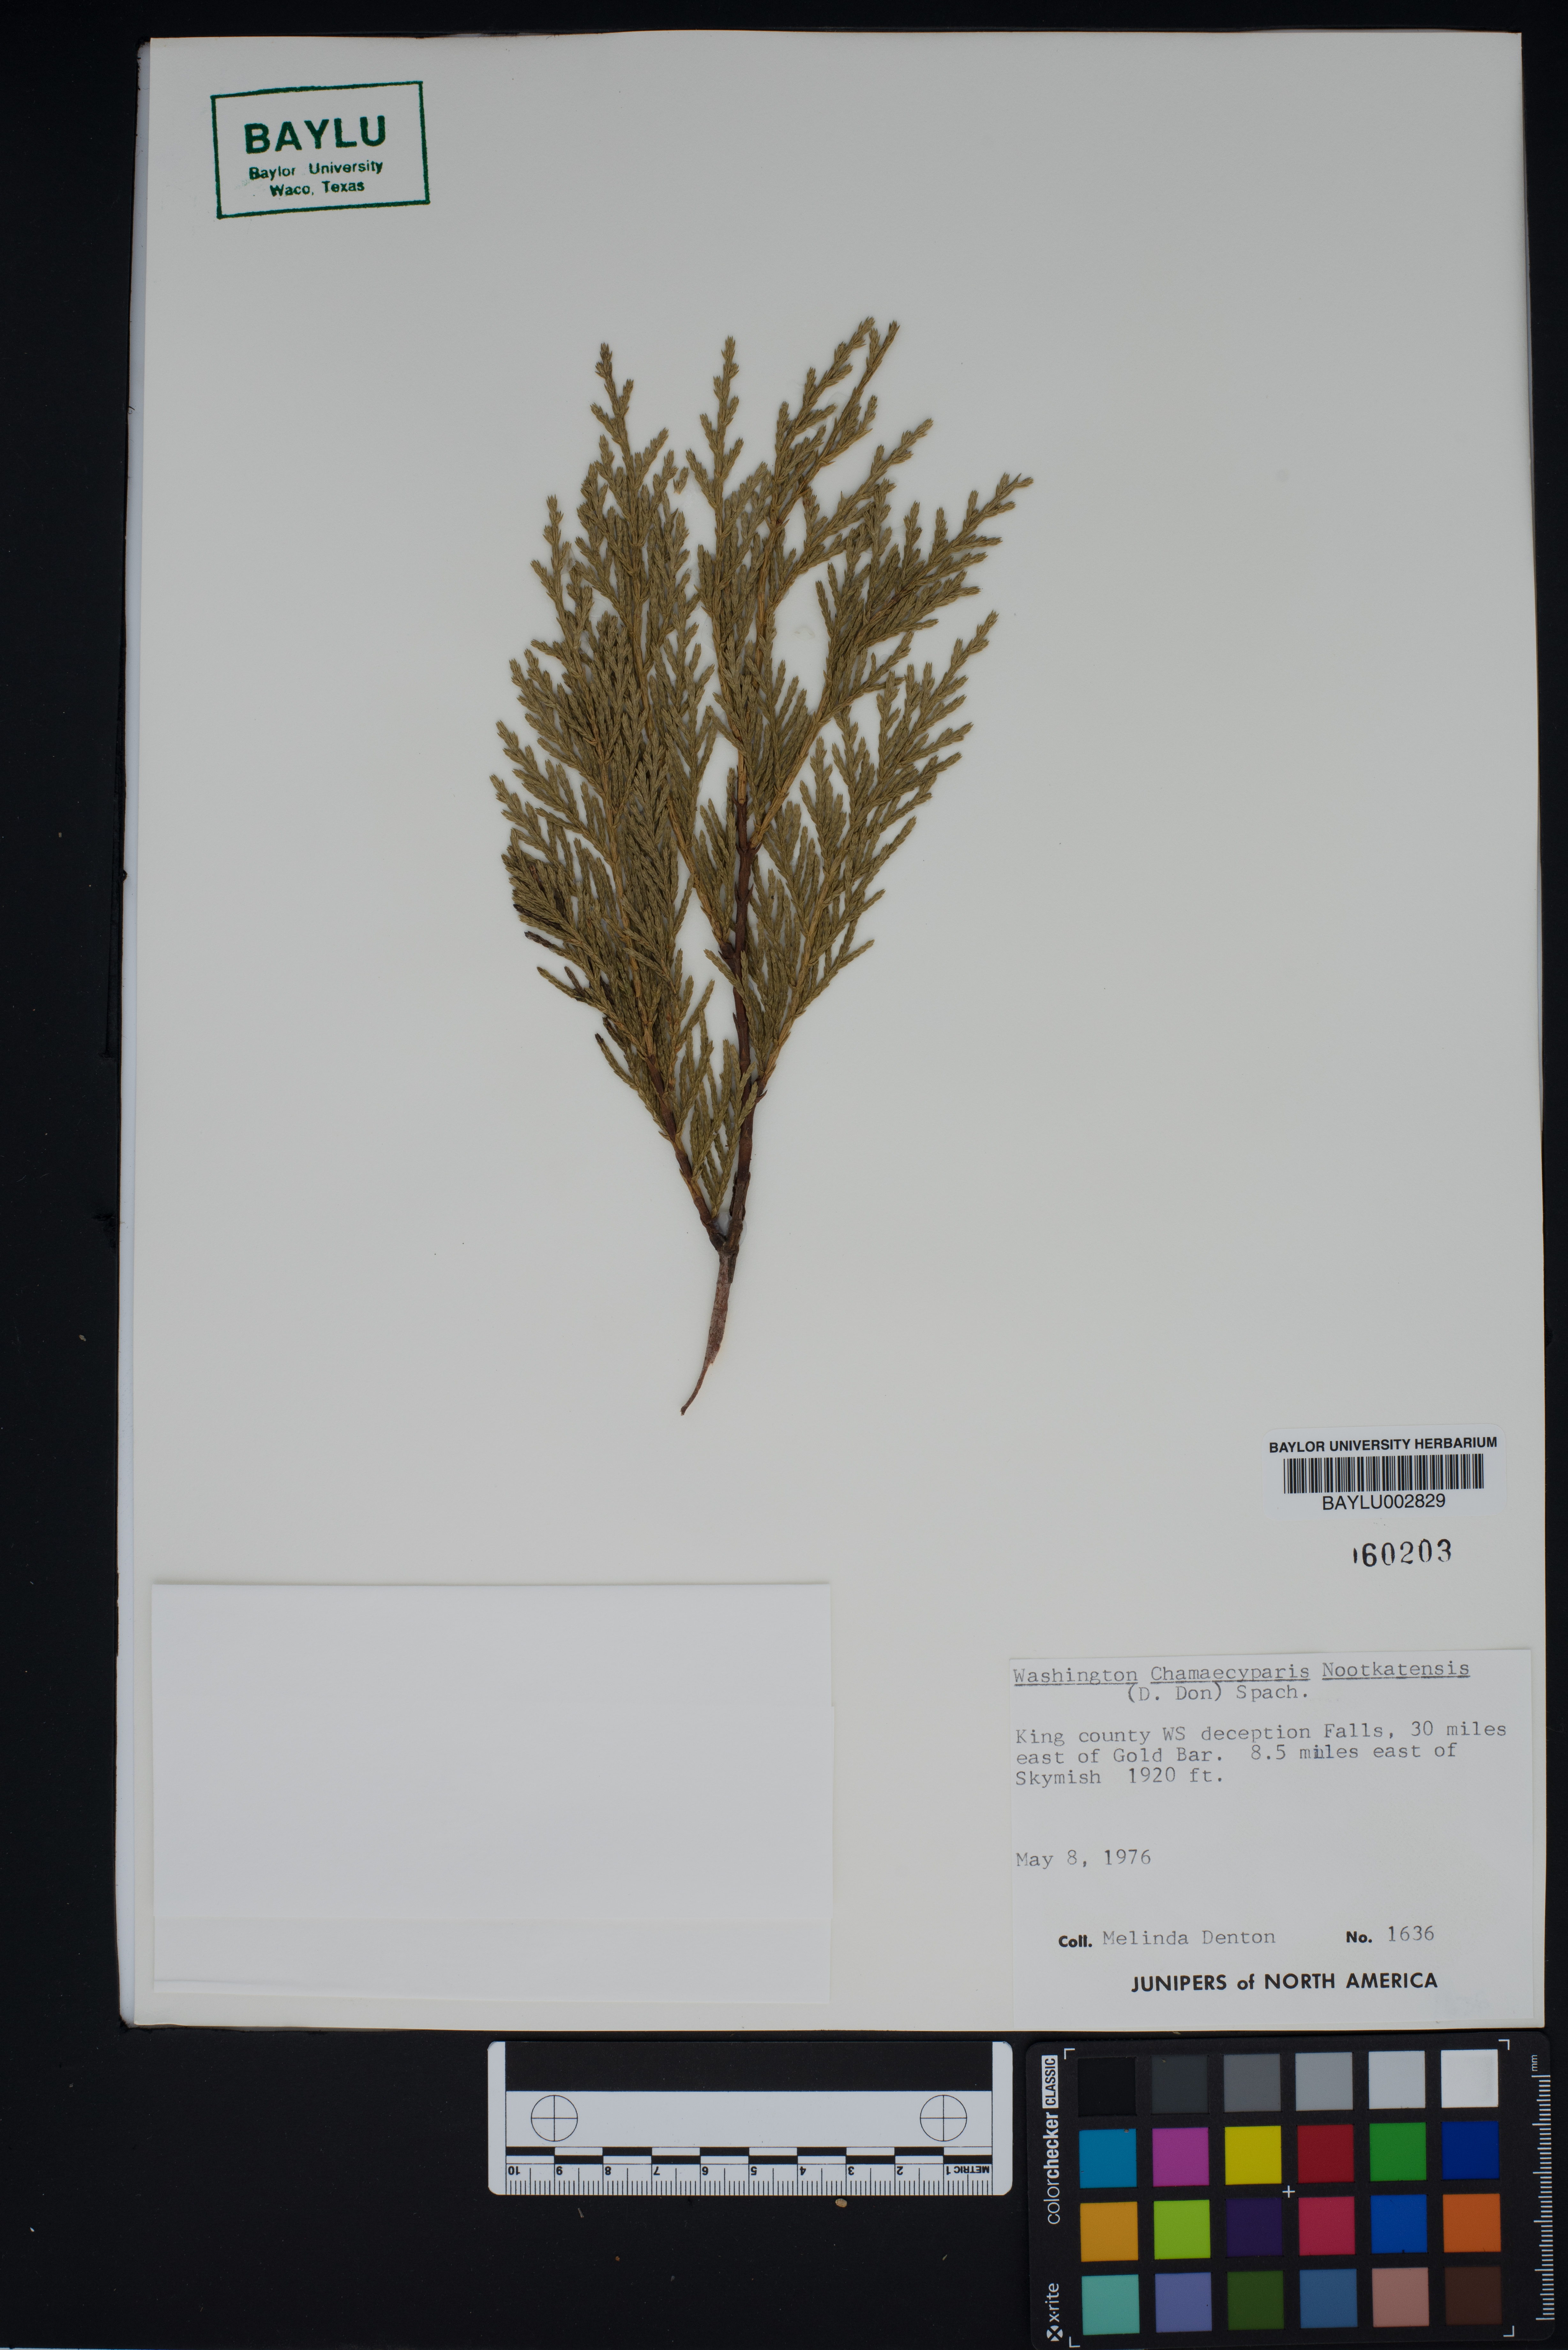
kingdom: Plantae
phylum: Tracheophyta
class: Pinopsida
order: Pinales
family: Cupressaceae
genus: Xanthocyparis
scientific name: Xanthocyparis nootkatensis
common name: Nootka cypress
